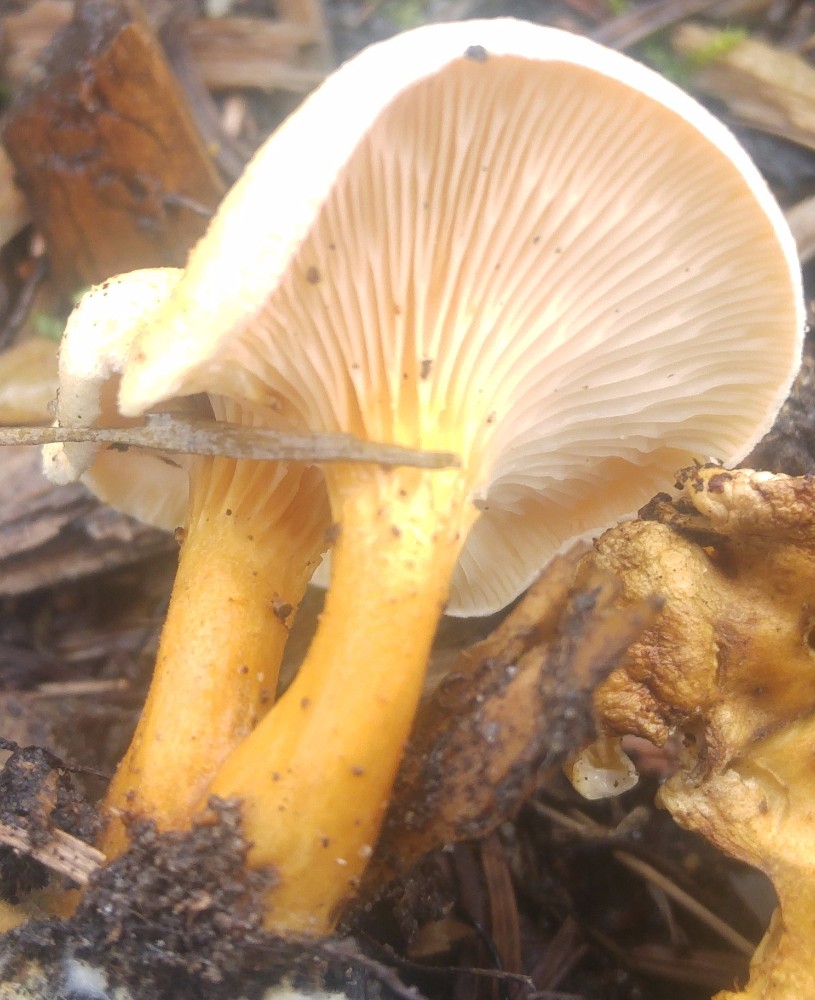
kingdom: Fungi
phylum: Basidiomycota
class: Agaricomycetes
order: Boletales
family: Hygrophoropsidaceae
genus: Hygrophoropsis
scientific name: Hygrophoropsis aurantiaca
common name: almindelig orangekantarel
